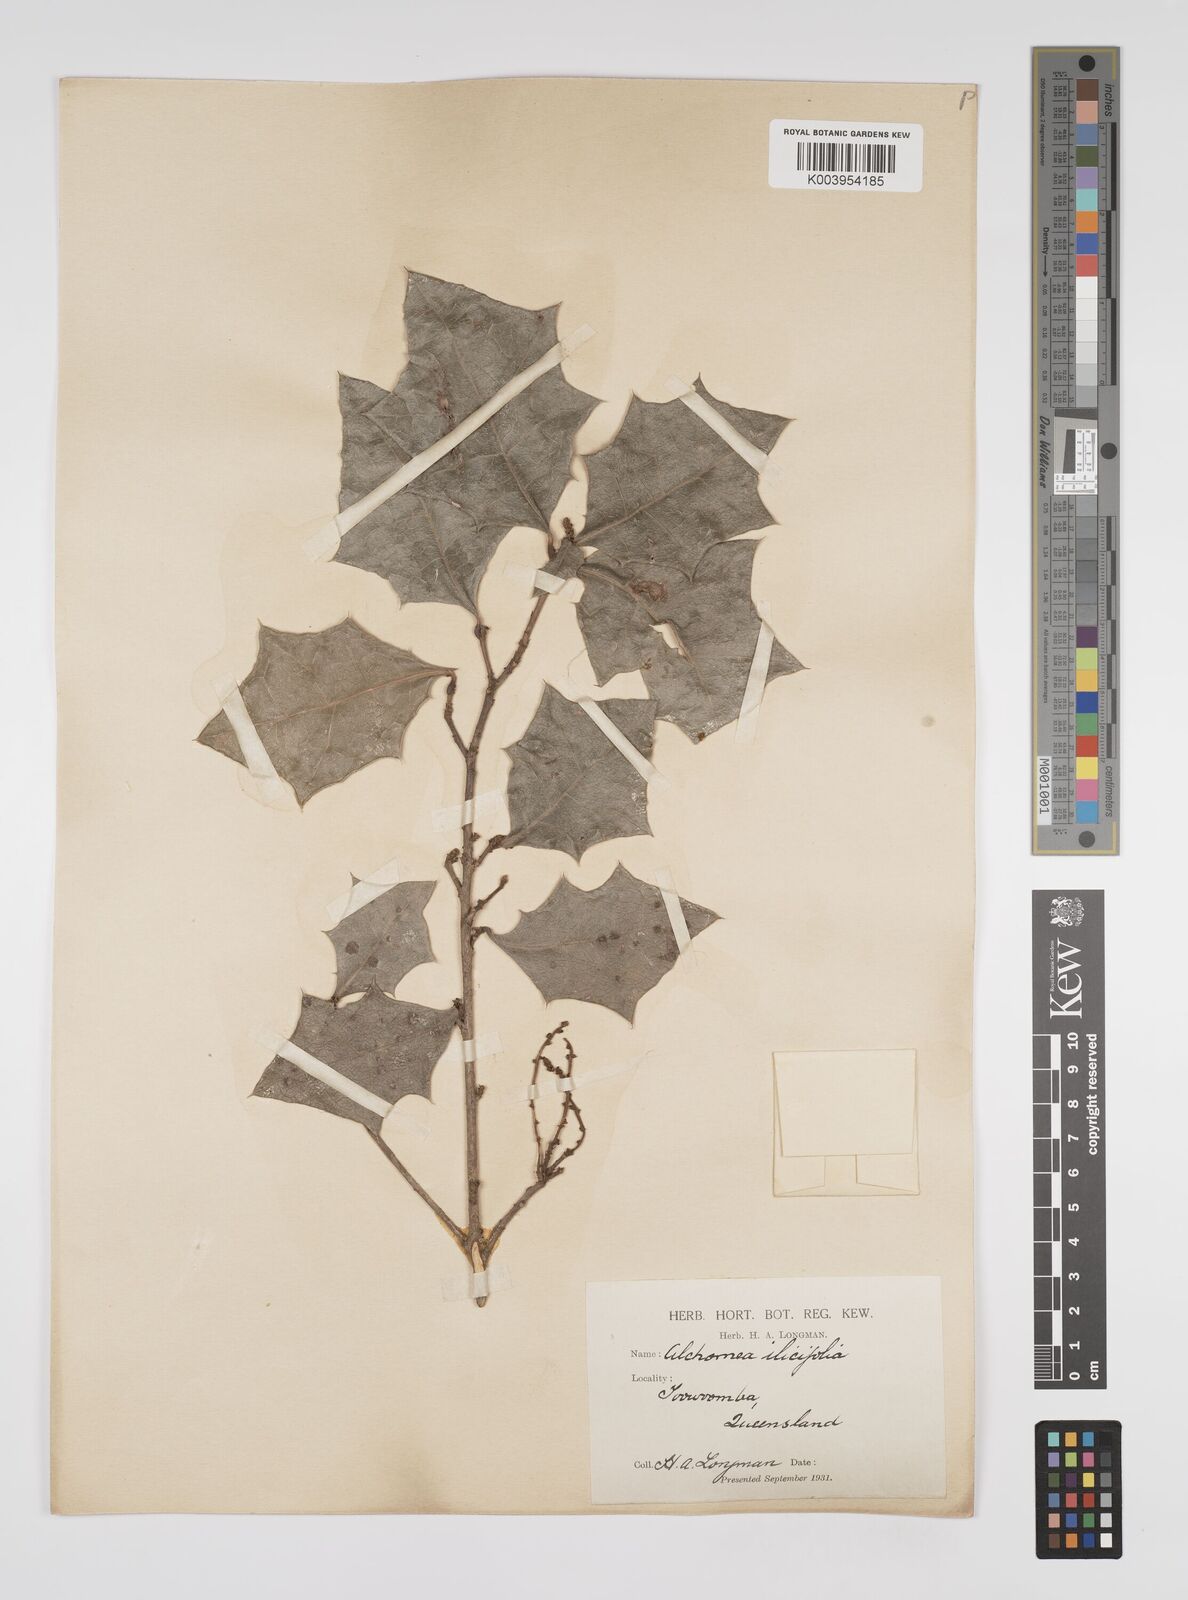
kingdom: Plantae
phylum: Tracheophyta
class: Magnoliopsida
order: Malpighiales
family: Euphorbiaceae
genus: Alchornea
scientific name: Alchornea ilicifolia
